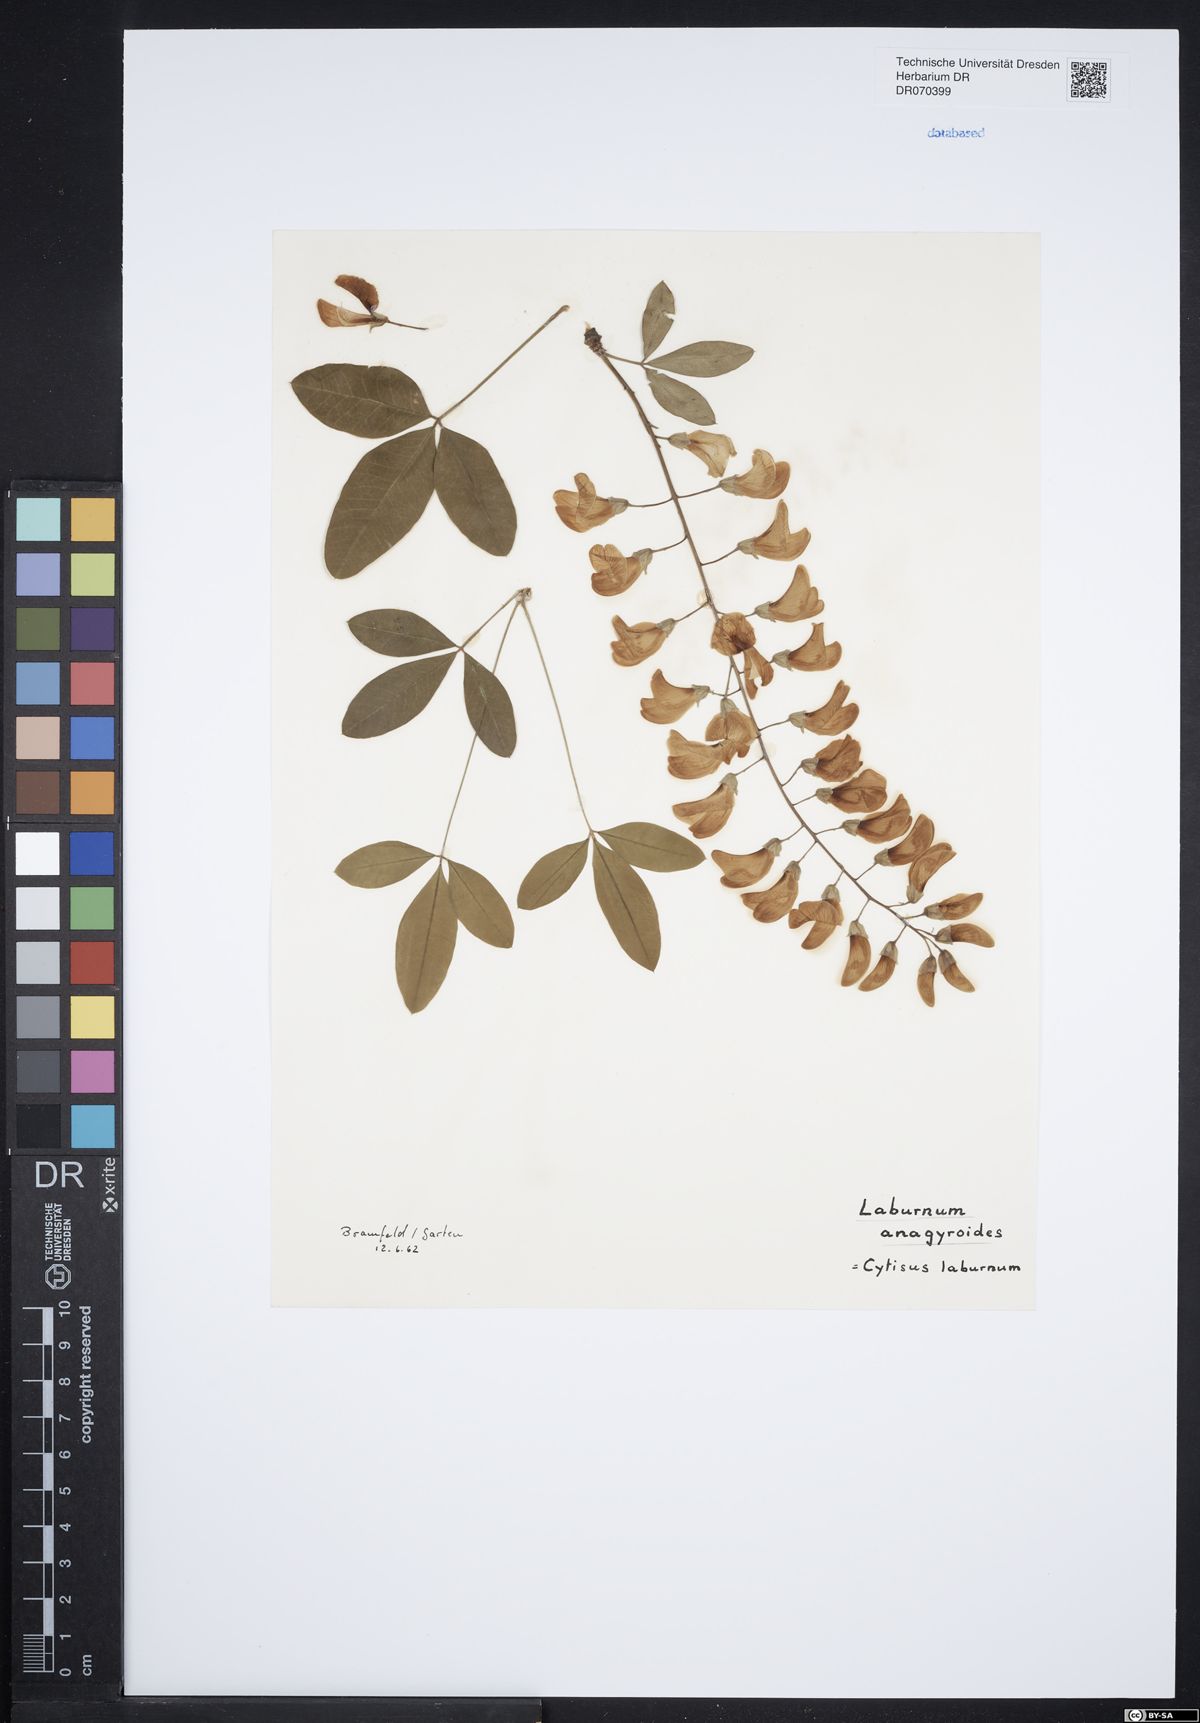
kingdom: Plantae
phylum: Tracheophyta
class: Magnoliopsida
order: Fabales
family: Fabaceae
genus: Laburnum
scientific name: Laburnum anagyroides
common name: Laburnum
